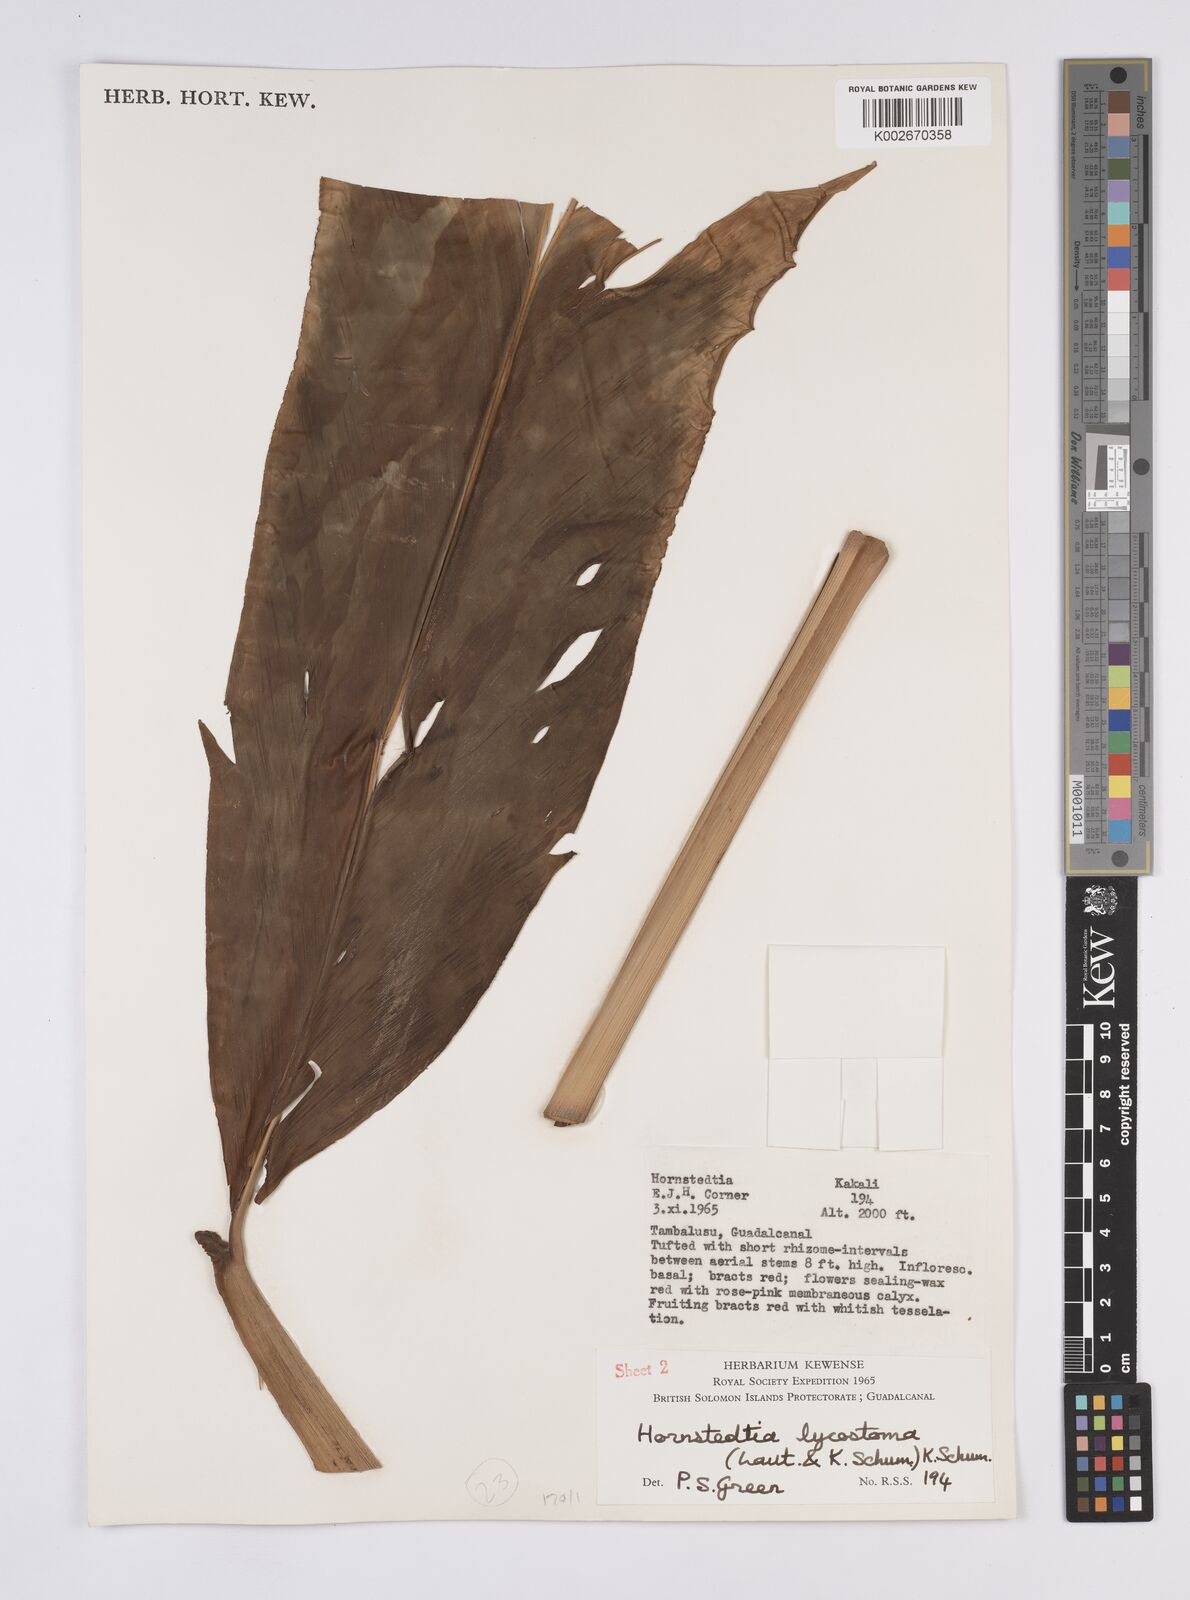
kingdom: Plantae
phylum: Tracheophyta
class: Liliopsida
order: Zingiberales
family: Zingiberaceae
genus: Hornstedtia
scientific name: Hornstedtia scottiana
